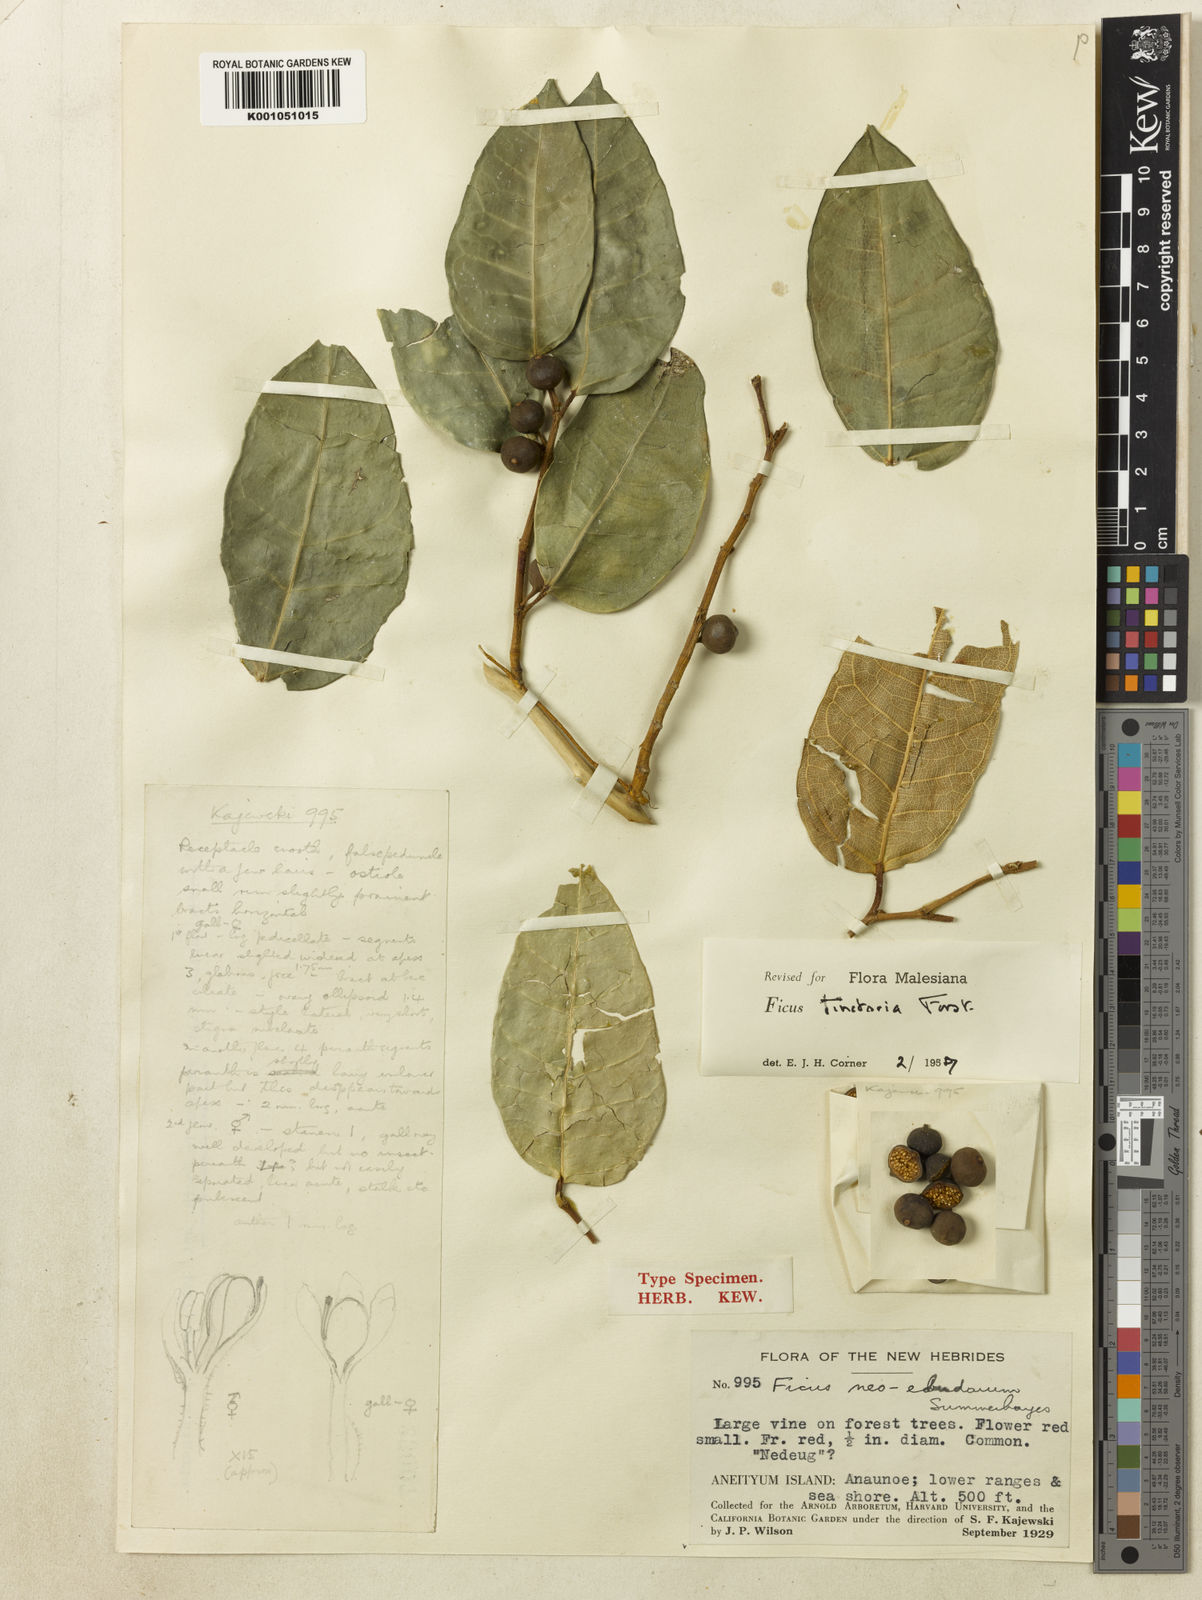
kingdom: Plantae
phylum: Tracheophyta
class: Magnoliopsida
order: Rosales
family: Moraceae
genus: Ficus
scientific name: Ficus tinctoria
